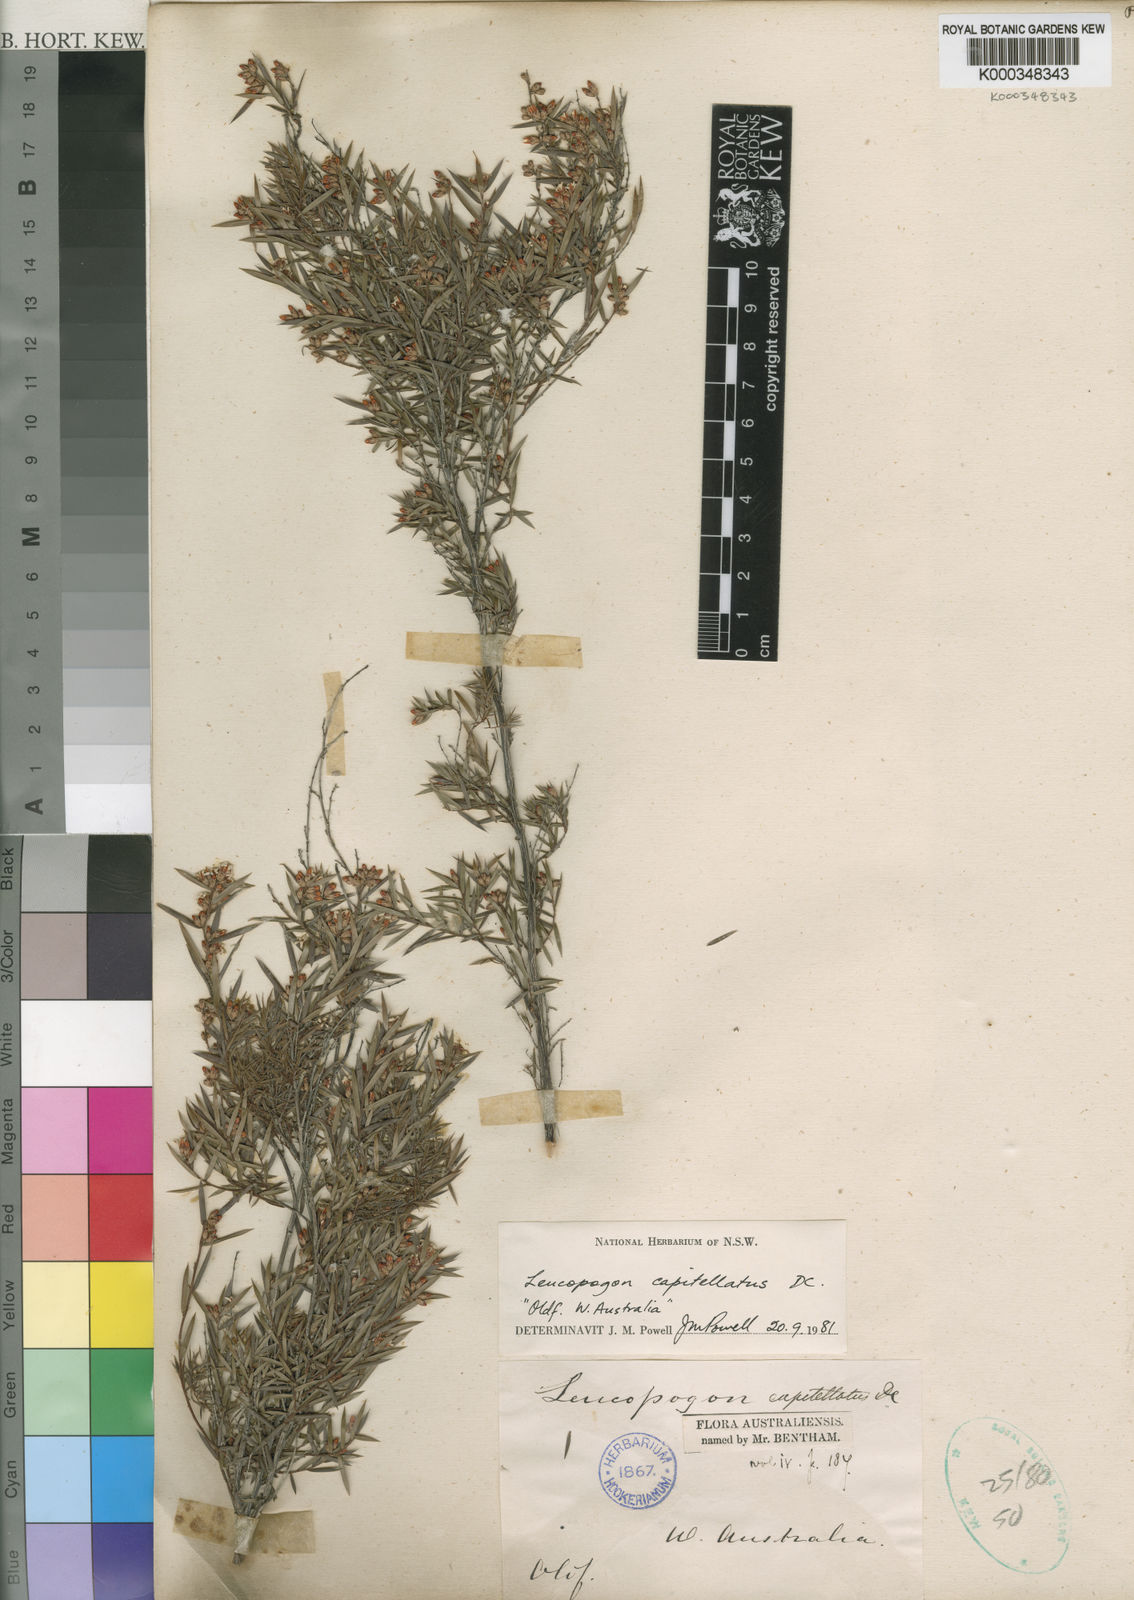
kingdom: Plantae
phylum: Tracheophyta
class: Magnoliopsida
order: Ericales
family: Ericaceae
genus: Leucopogon
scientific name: Leucopogon capitellatus
